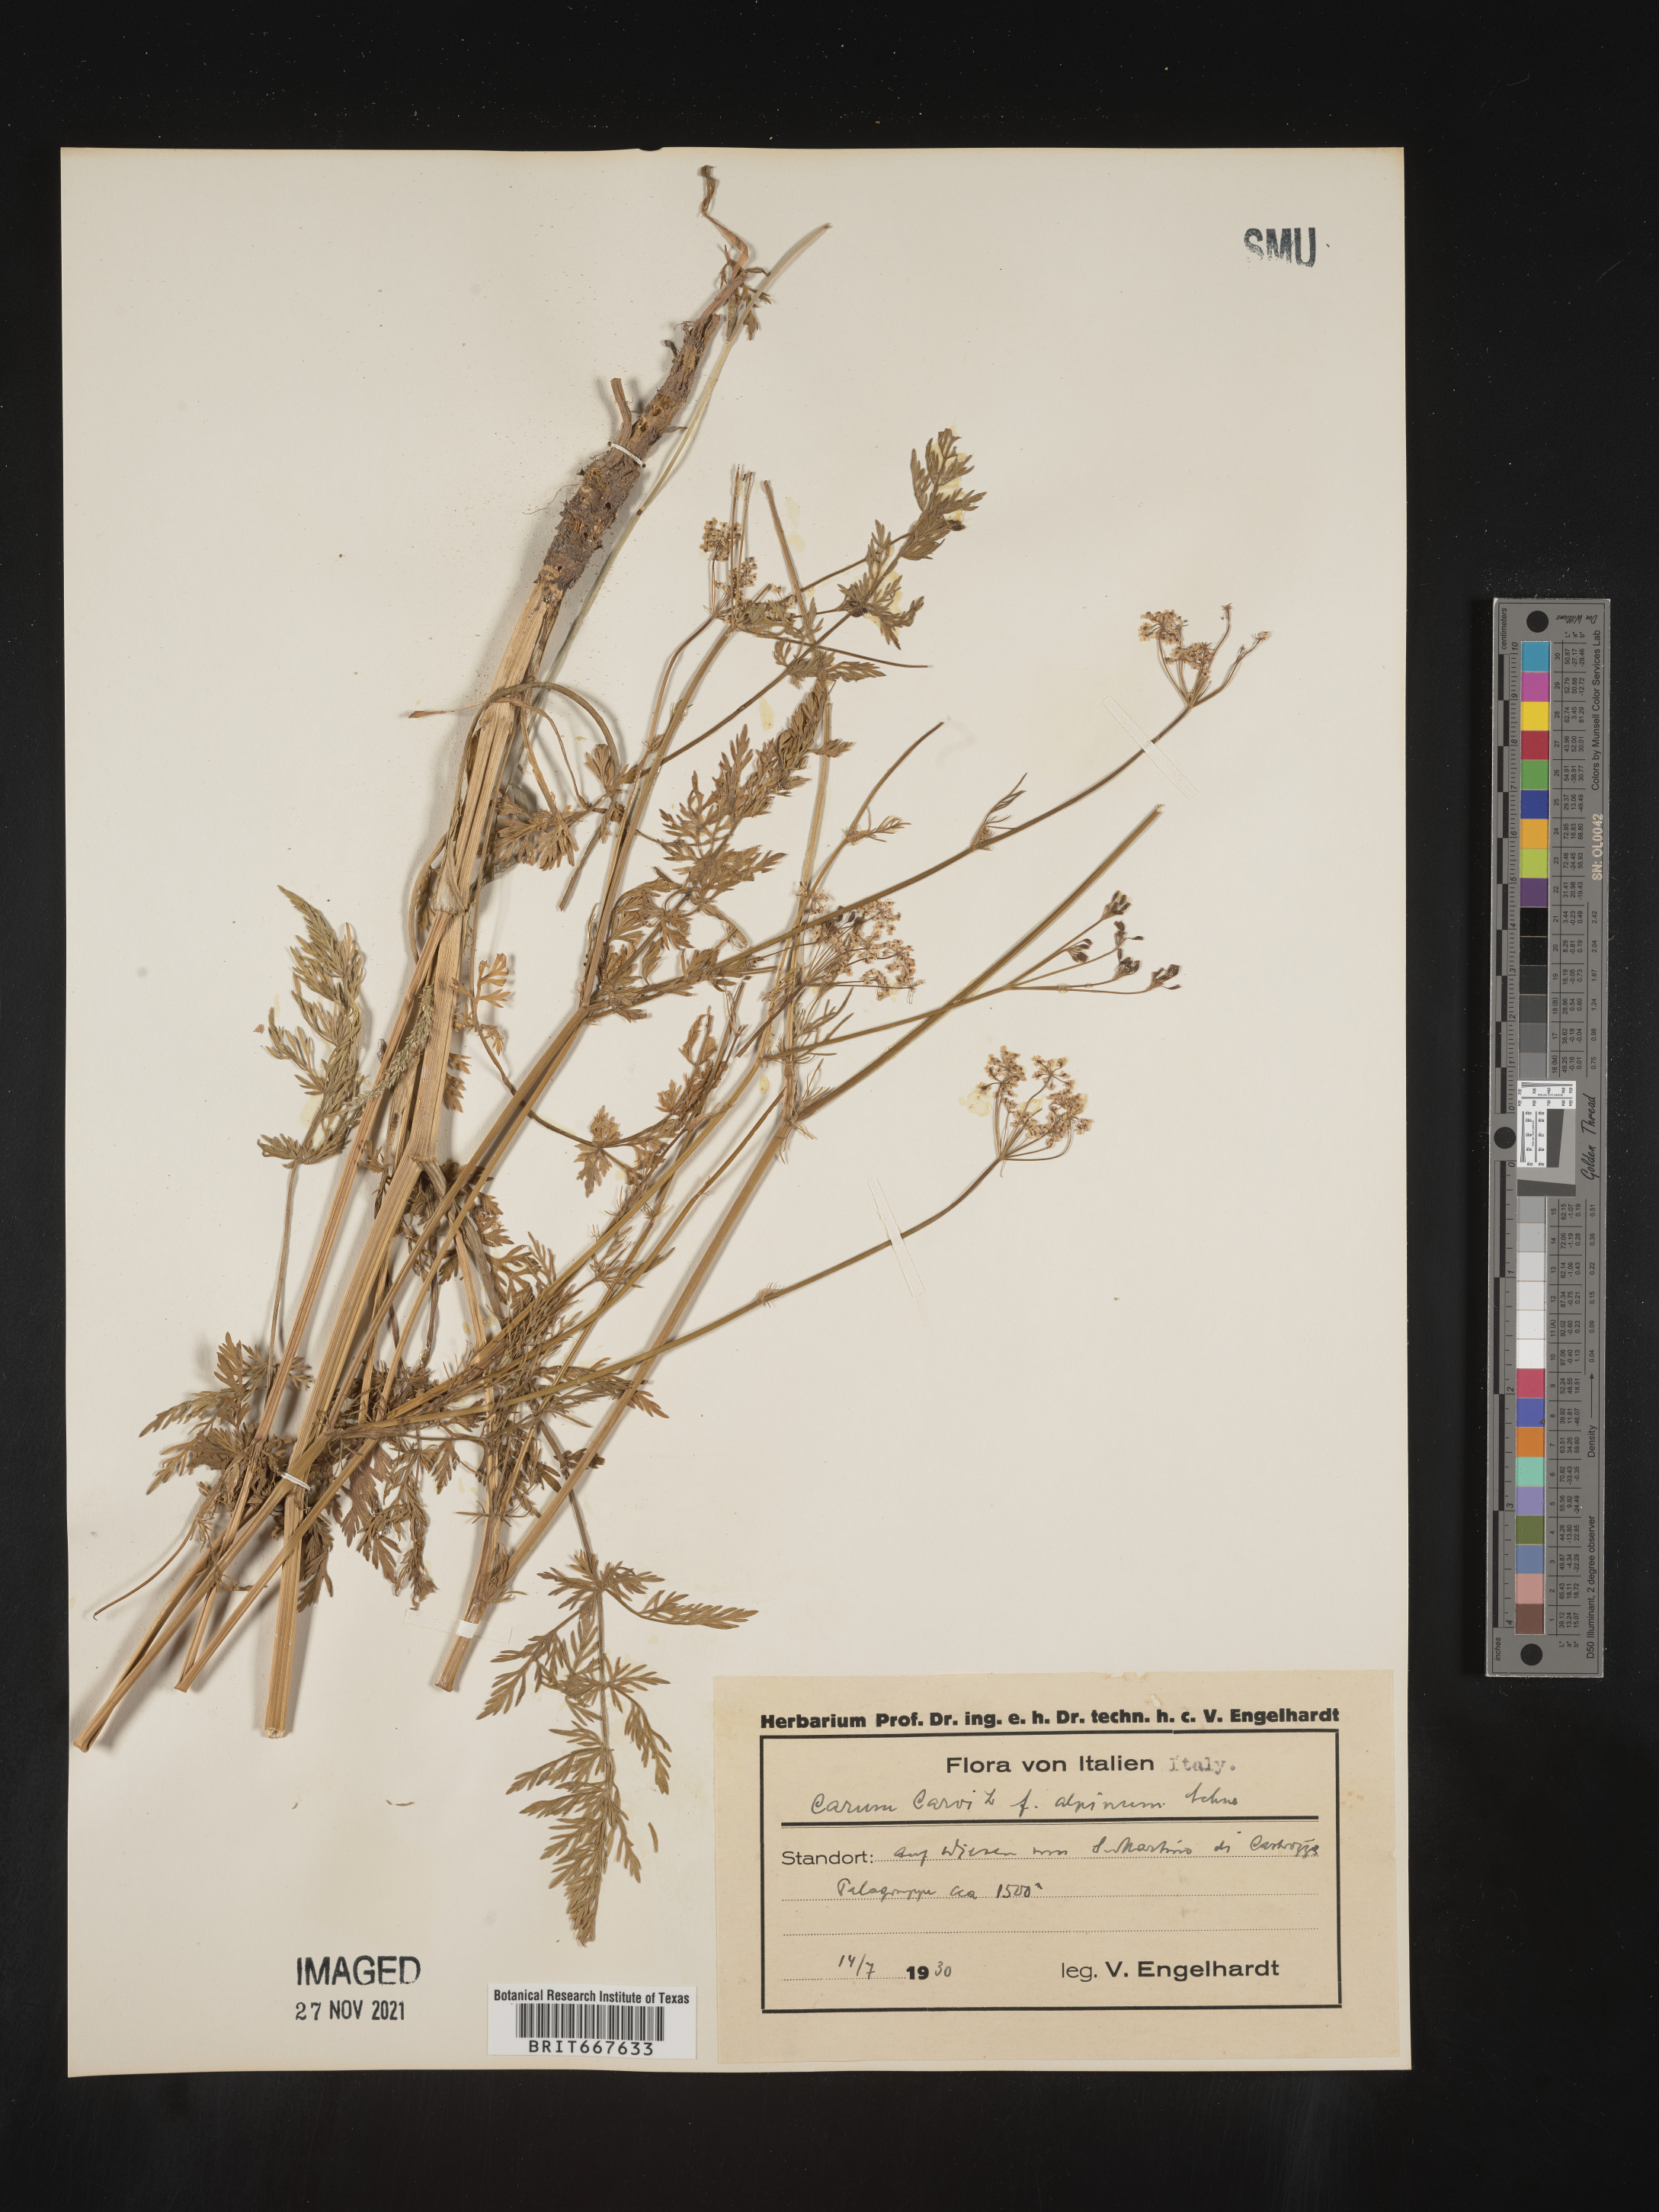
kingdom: Plantae
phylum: Tracheophyta
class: Magnoliopsida
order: Apiales
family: Apiaceae
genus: Carum
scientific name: Carum
